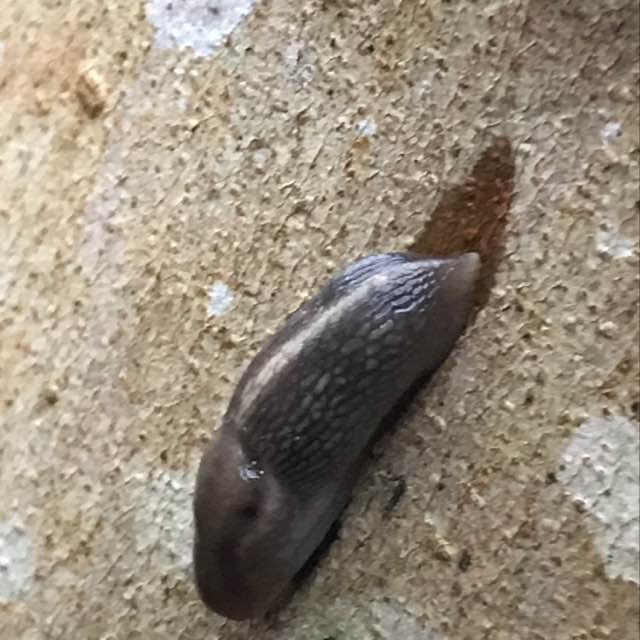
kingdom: Animalia
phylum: Mollusca
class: Gastropoda
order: Stylommatophora
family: Limacidae
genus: Lehmannia
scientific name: Lehmannia marginata
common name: Bøgesnegl
